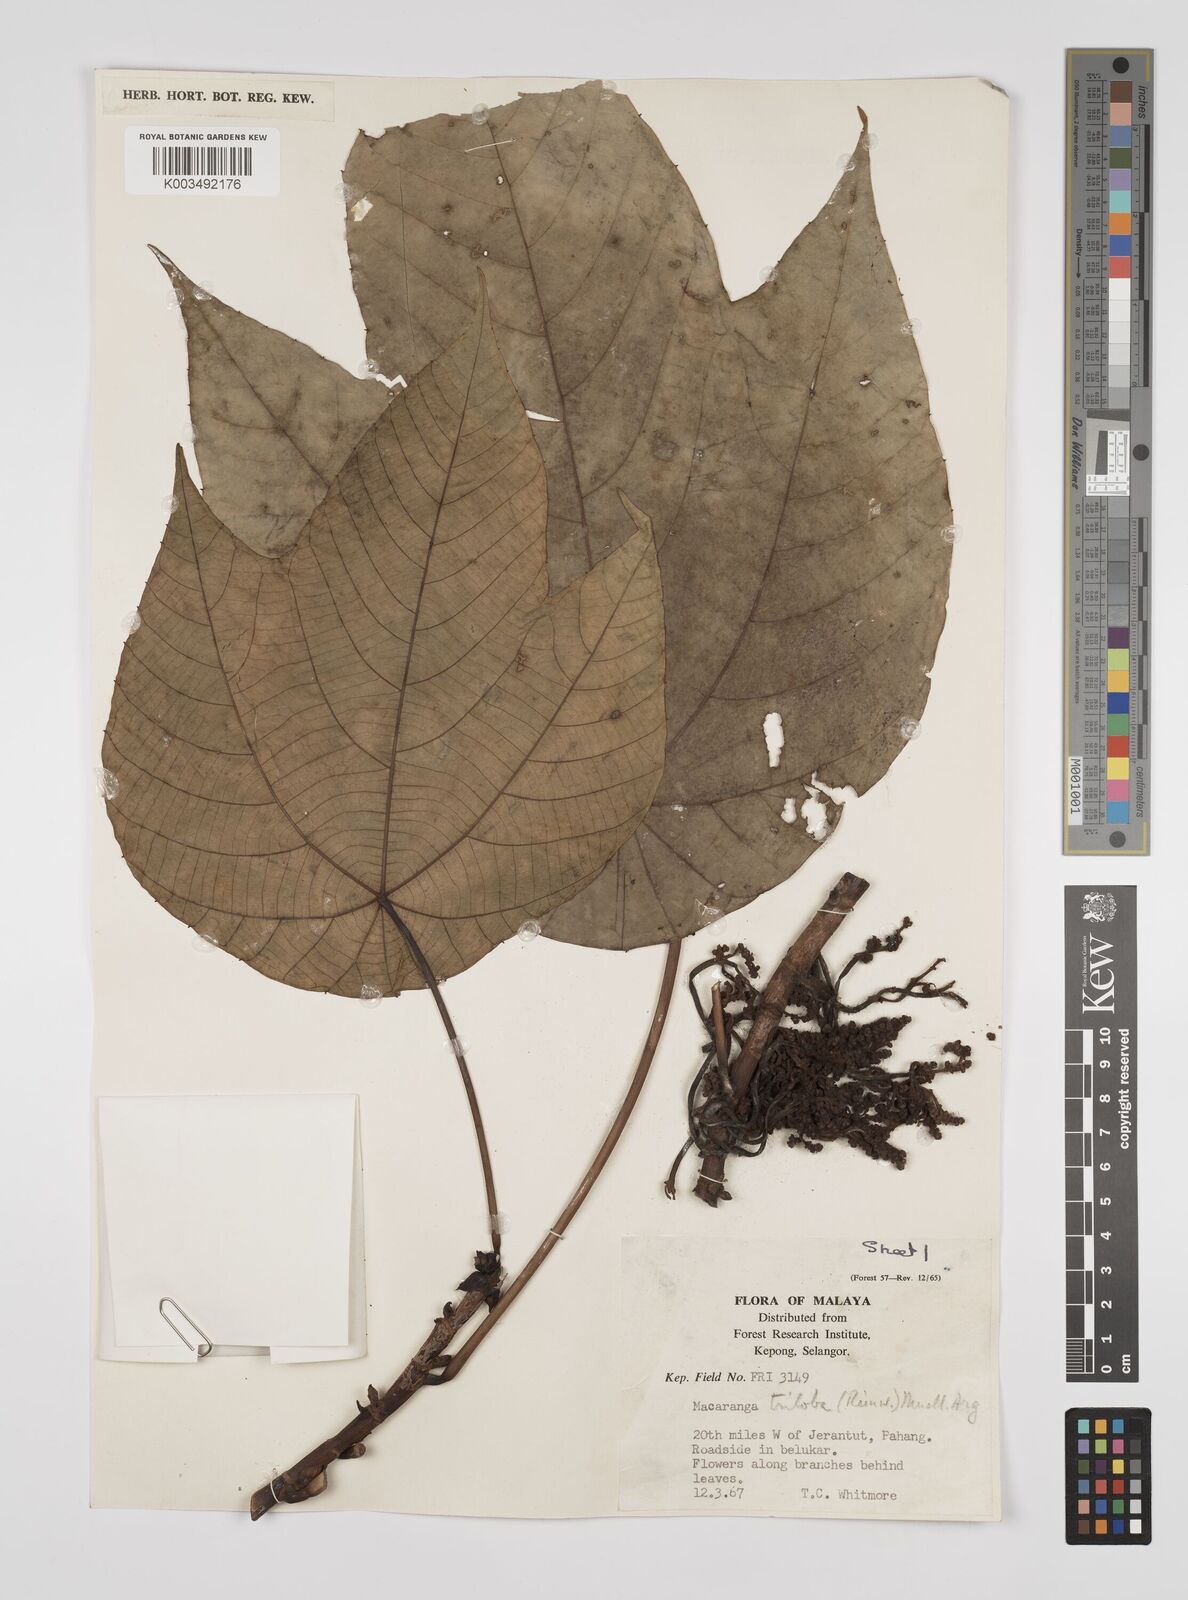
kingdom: Plantae
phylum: Tracheophyta
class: Magnoliopsida
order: Malpighiales
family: Euphorbiaceae
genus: Macaranga
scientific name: Macaranga triloba
